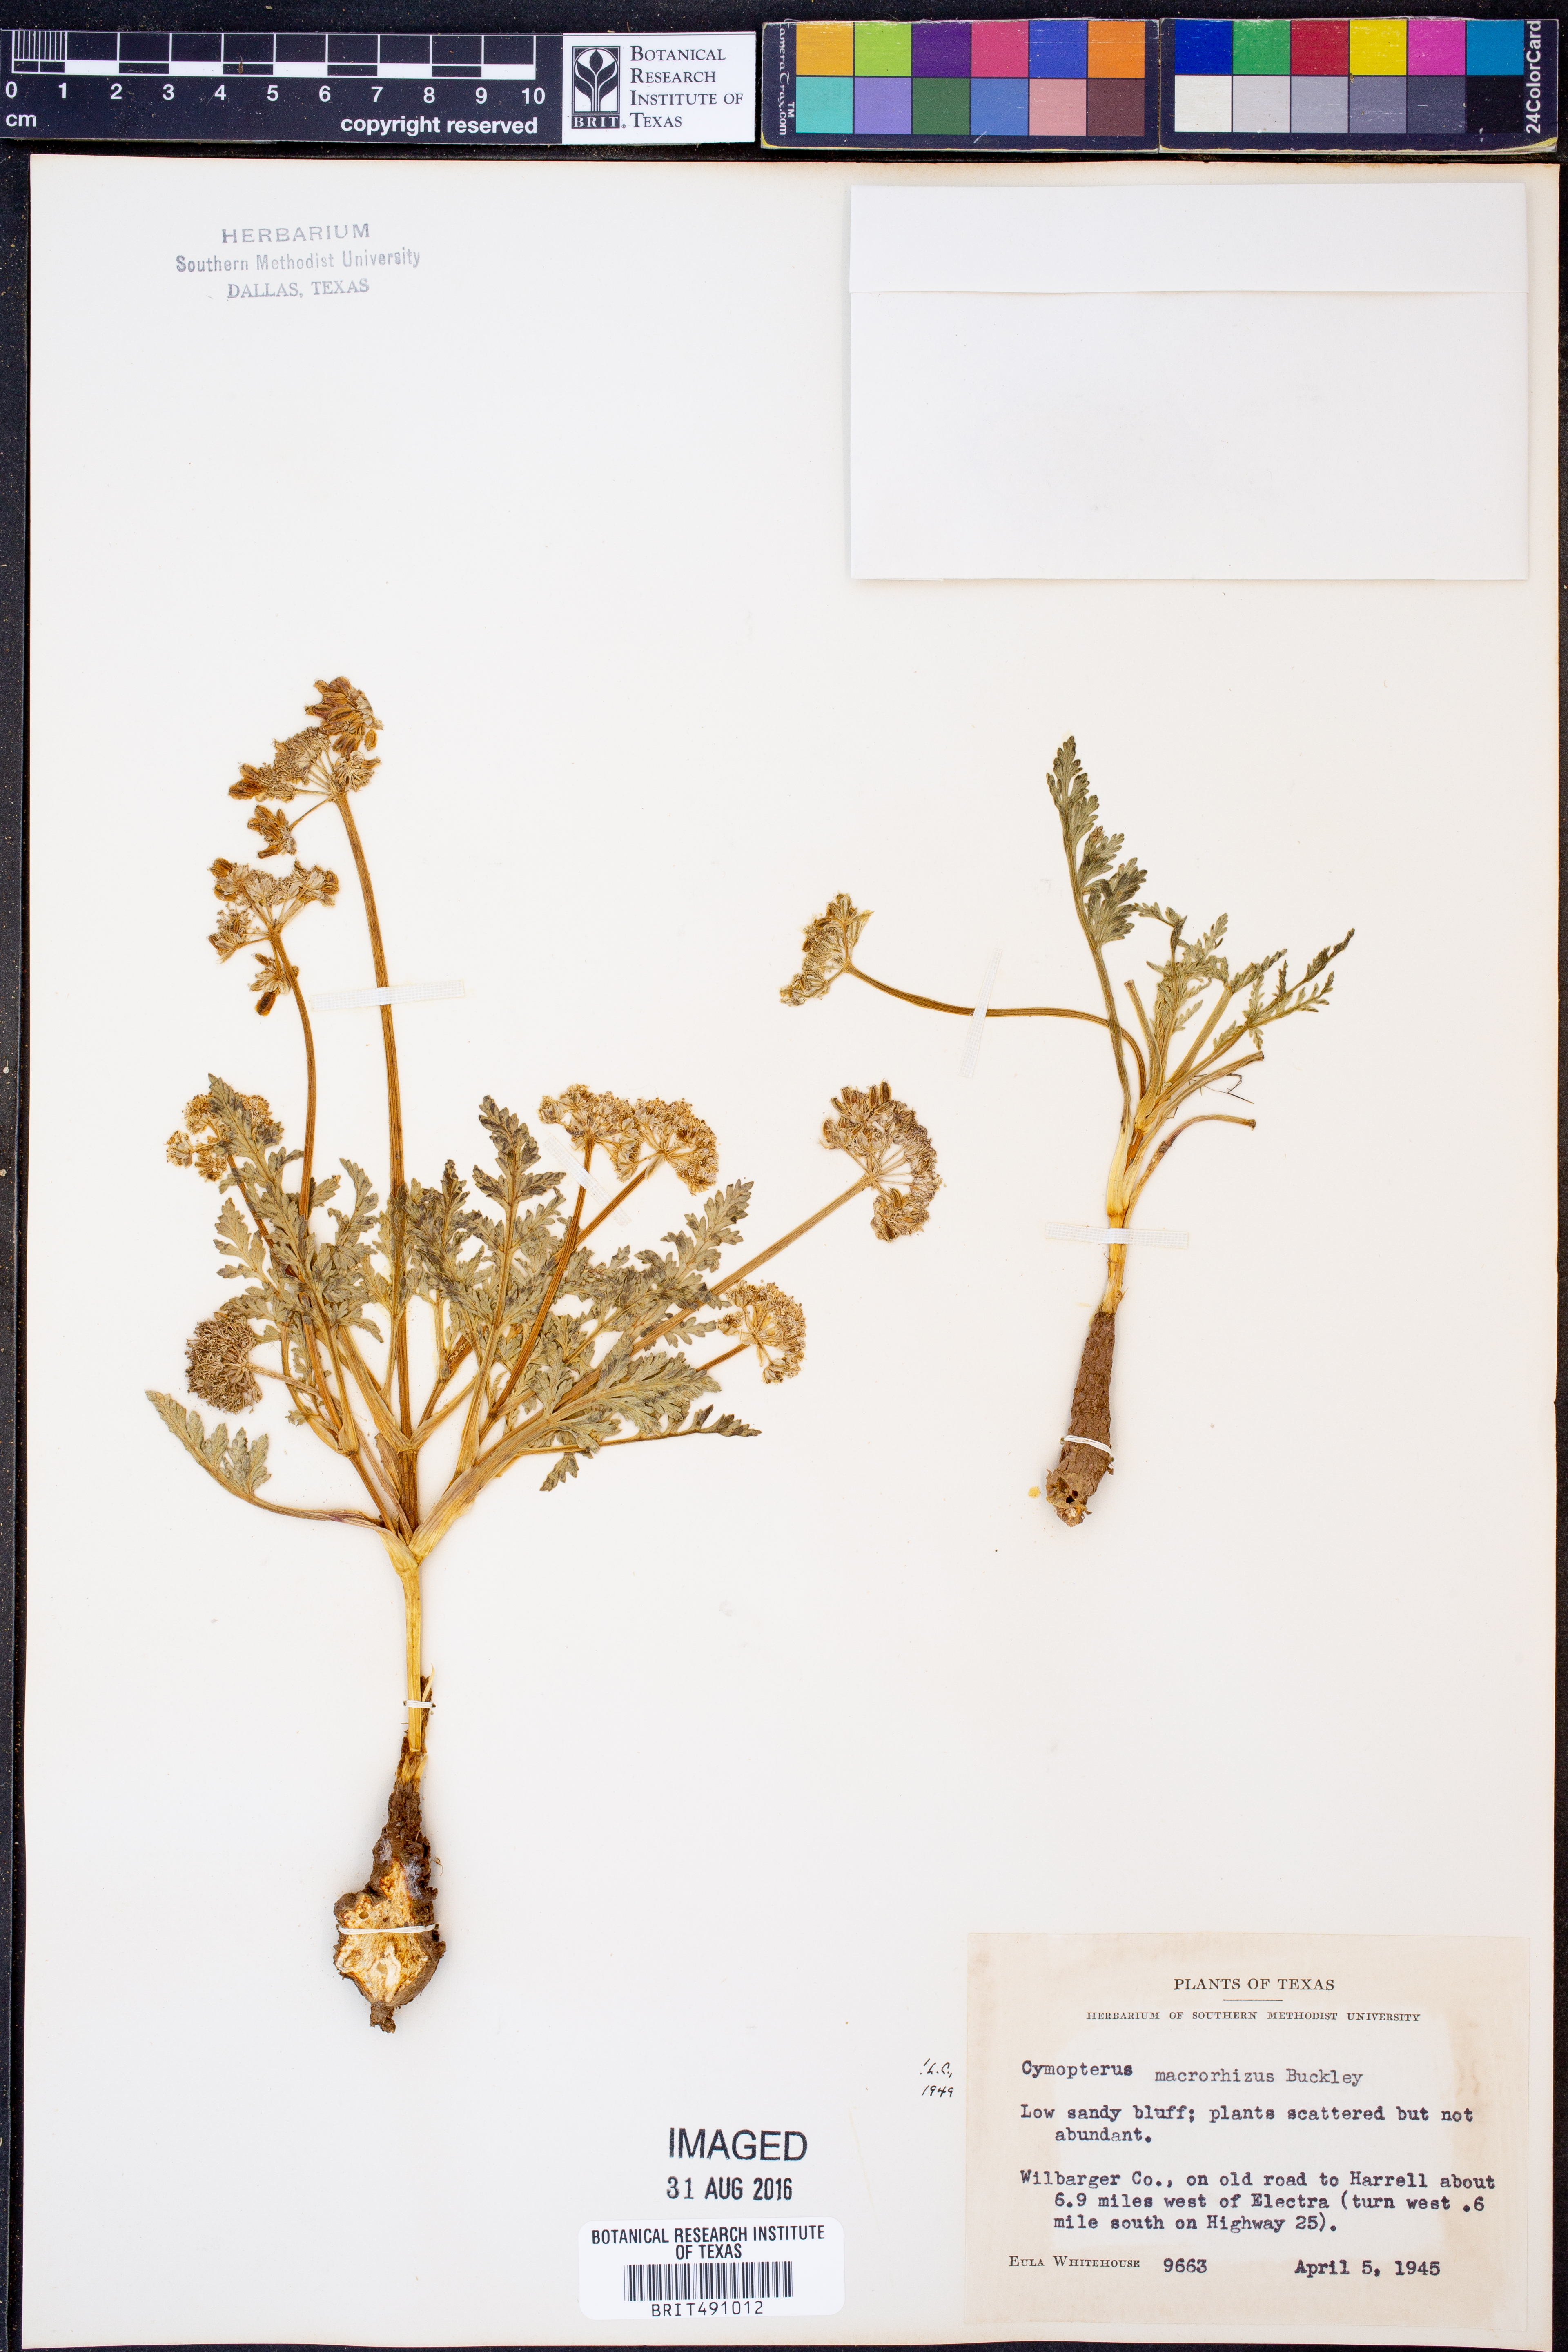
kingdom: Plantae
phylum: Tracheophyta
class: Magnoliopsida
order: Apiales
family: Apiaceae
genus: Vesper
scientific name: Vesper macrorhizus
